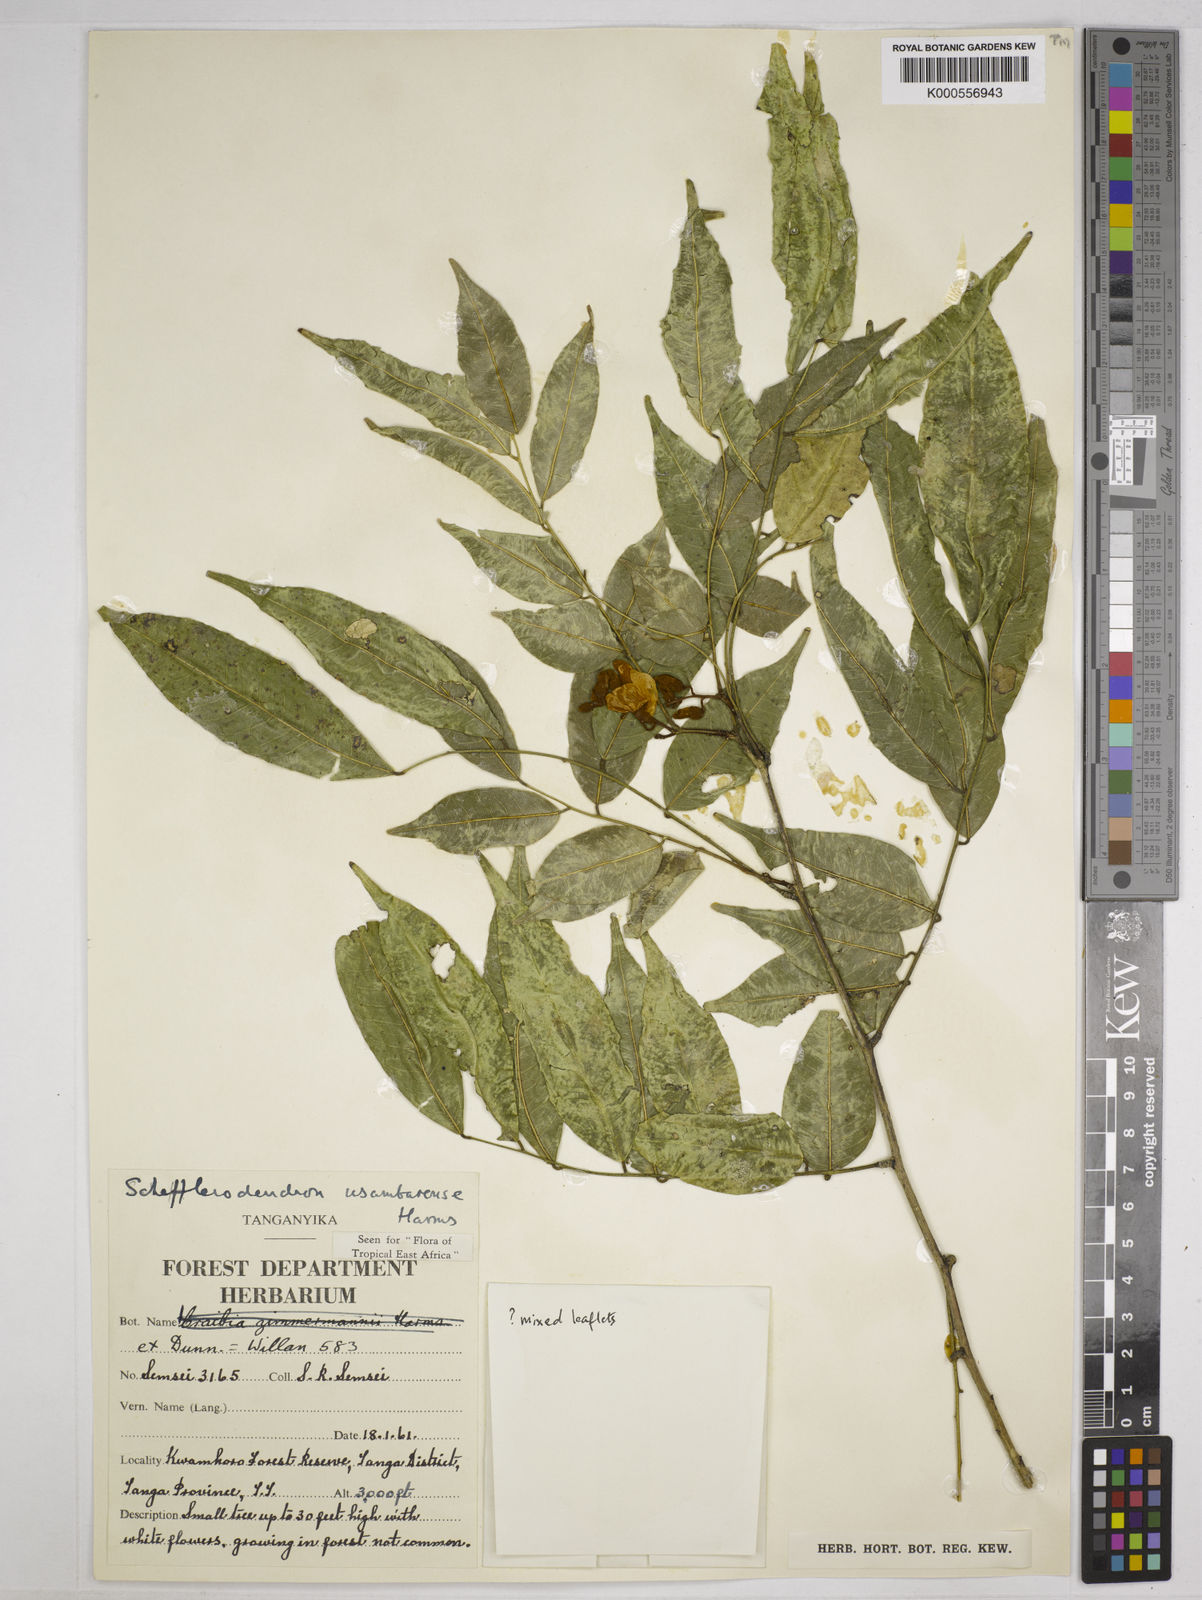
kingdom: Plantae
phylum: Tracheophyta
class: Magnoliopsida
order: Fabales
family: Fabaceae
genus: Schefflerodendron
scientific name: Schefflerodendron usambarense
